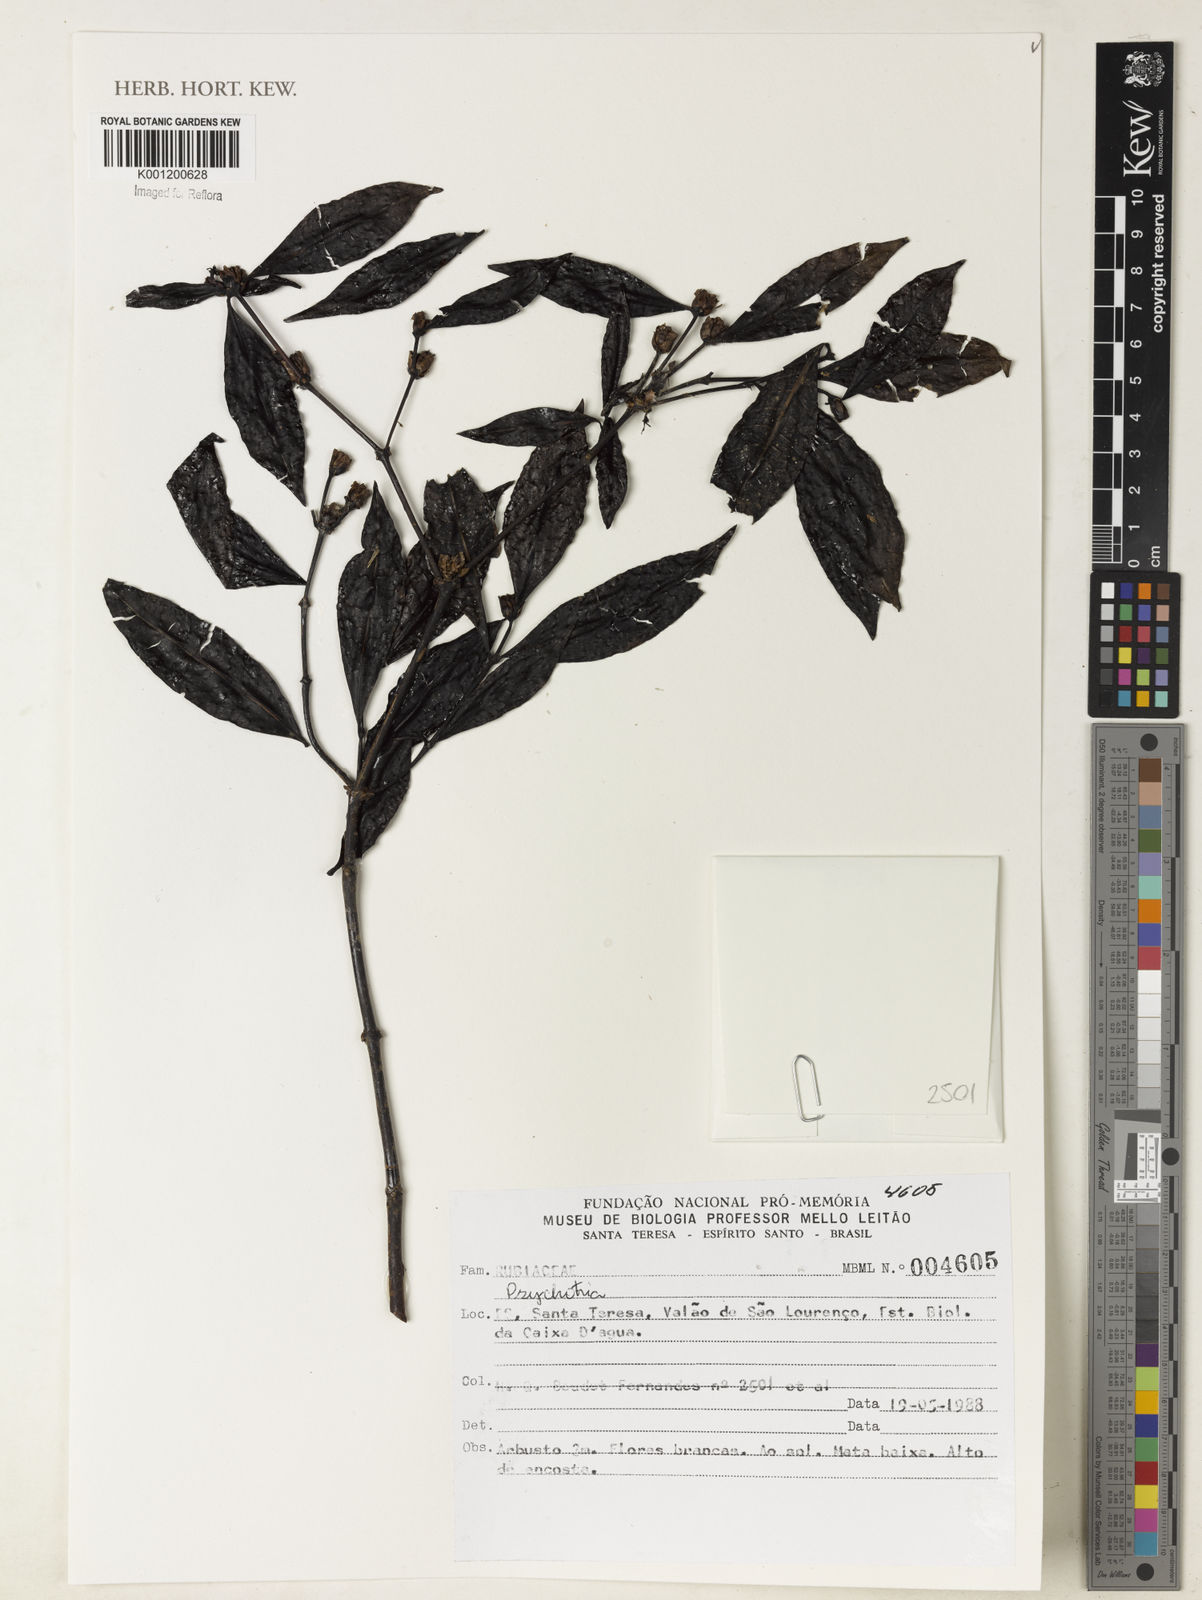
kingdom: Plantae
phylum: Tracheophyta
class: Magnoliopsida
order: Gentianales
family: Rubiaceae
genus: Psychotria
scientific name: Psychotria
